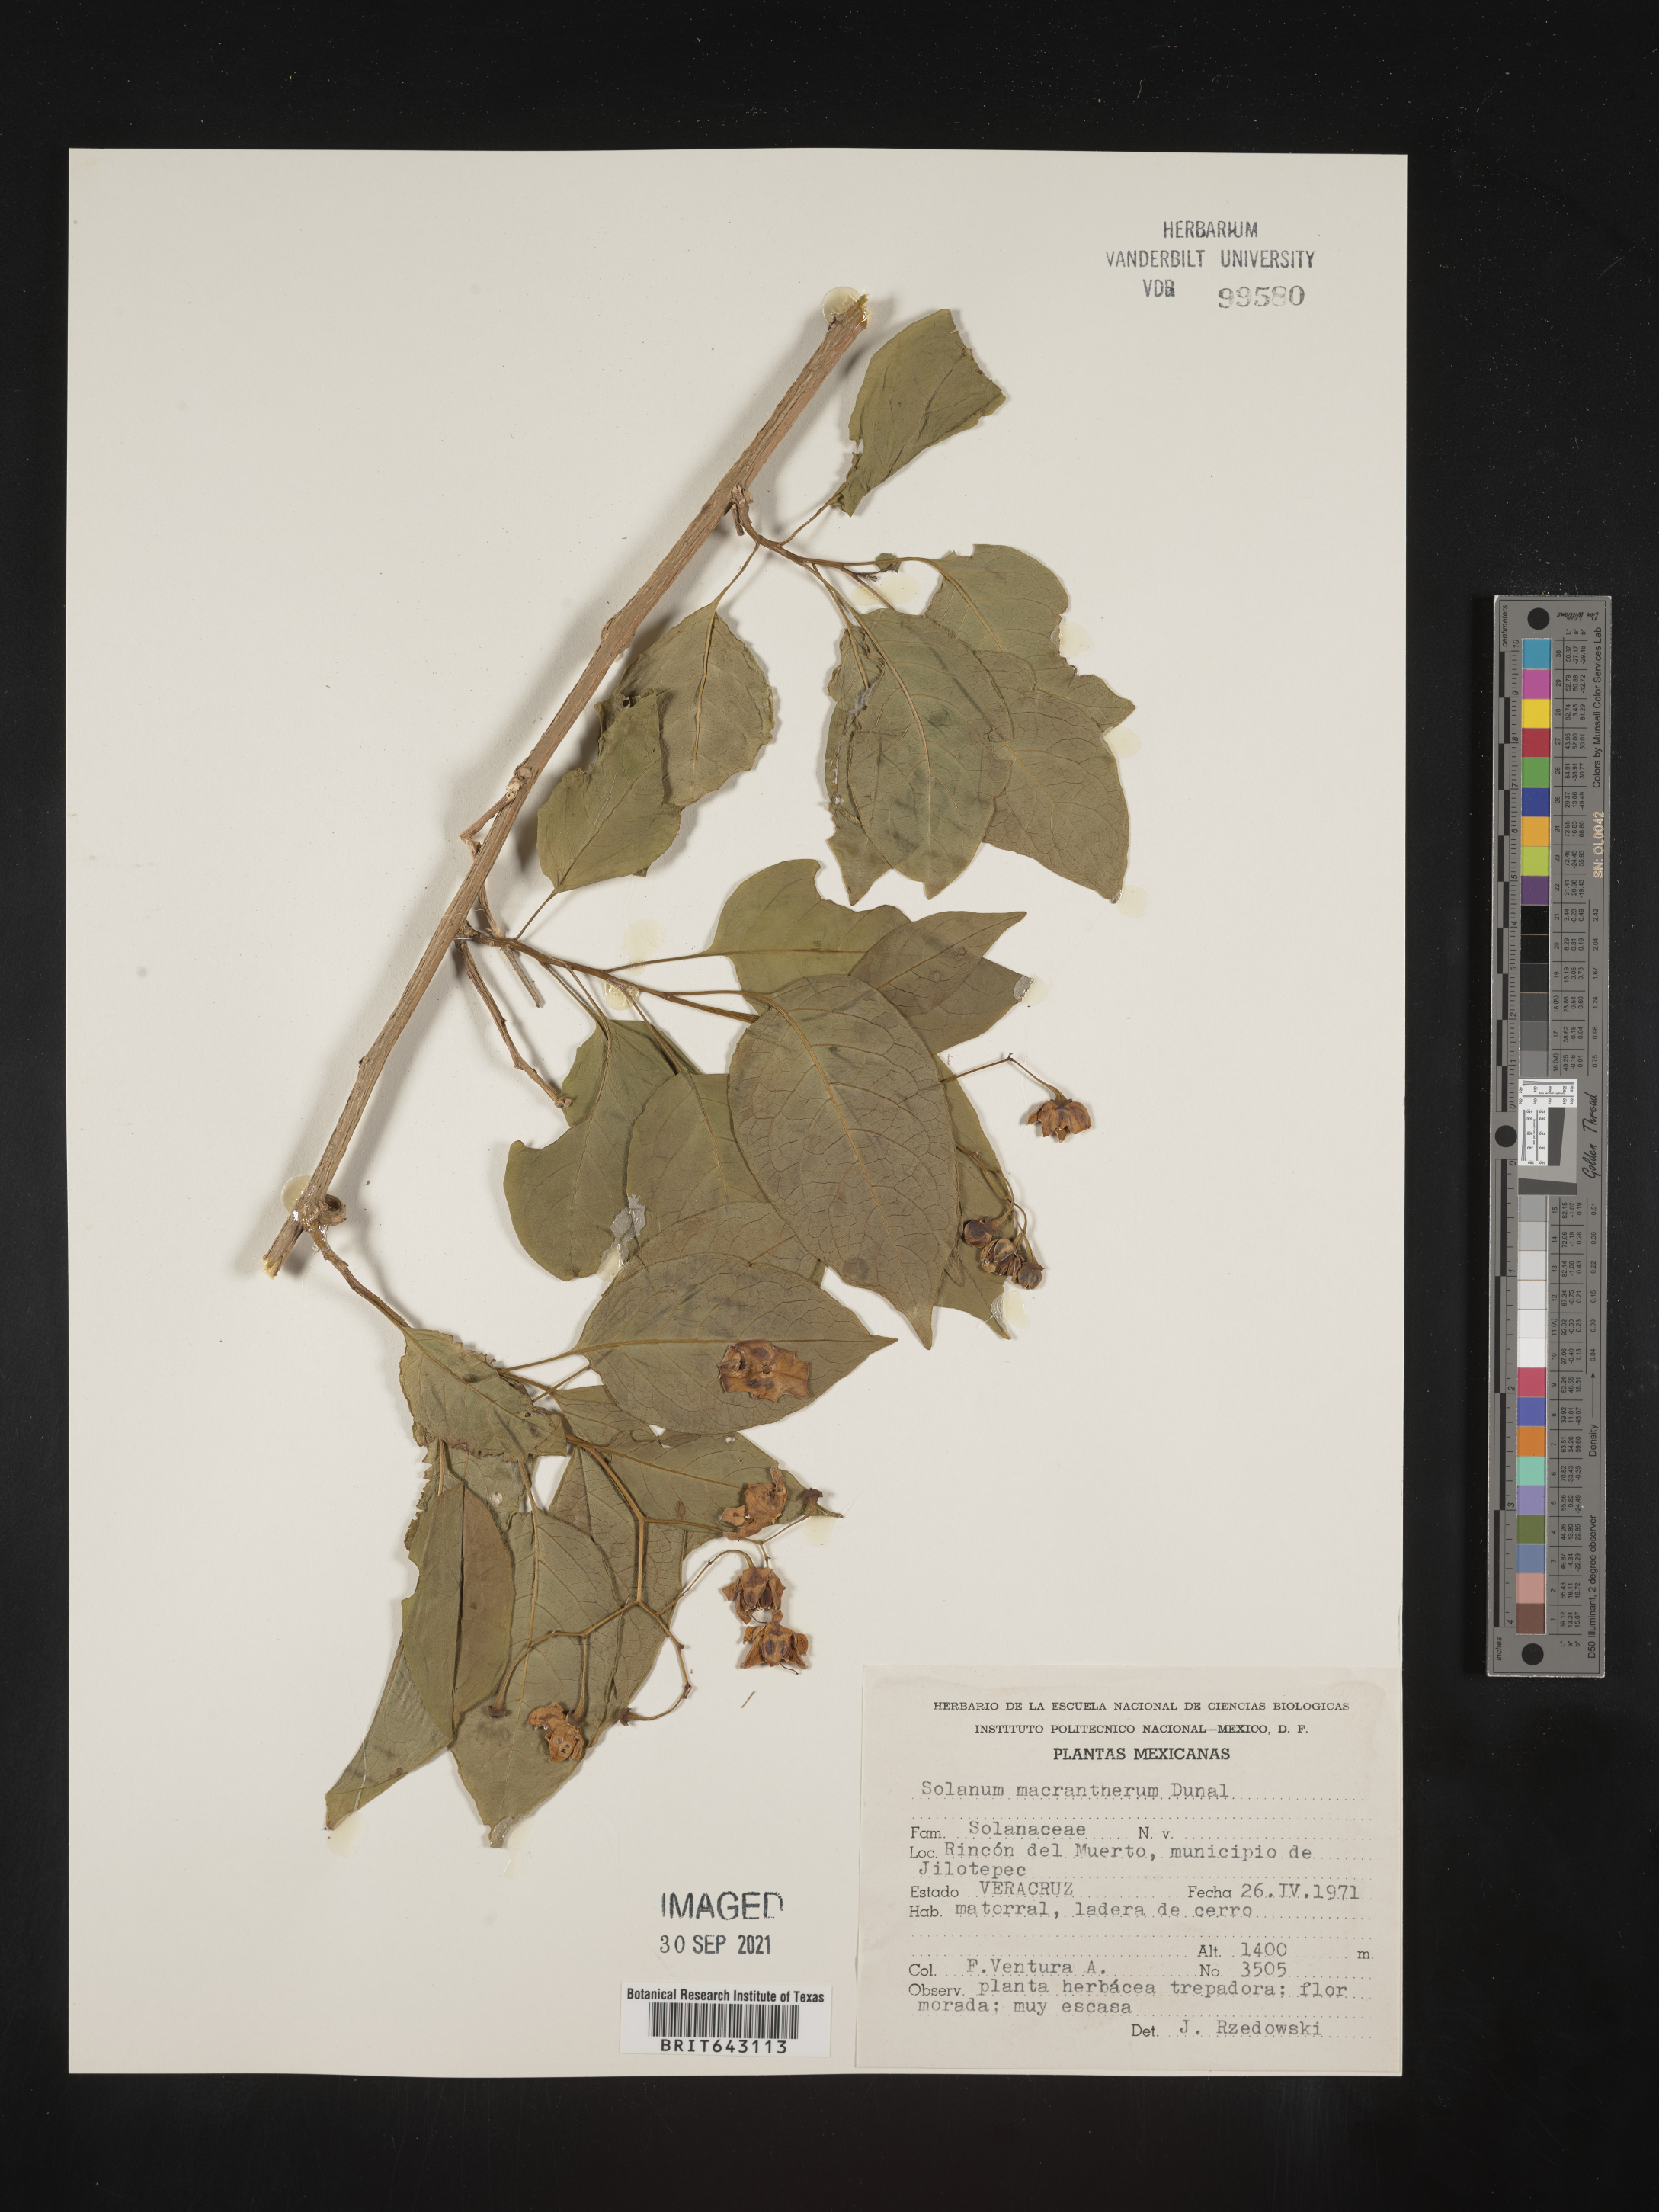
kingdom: Plantae
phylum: Tracheophyta
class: Magnoliopsida
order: Solanales
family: Solanaceae
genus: Solanum
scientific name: Solanum
